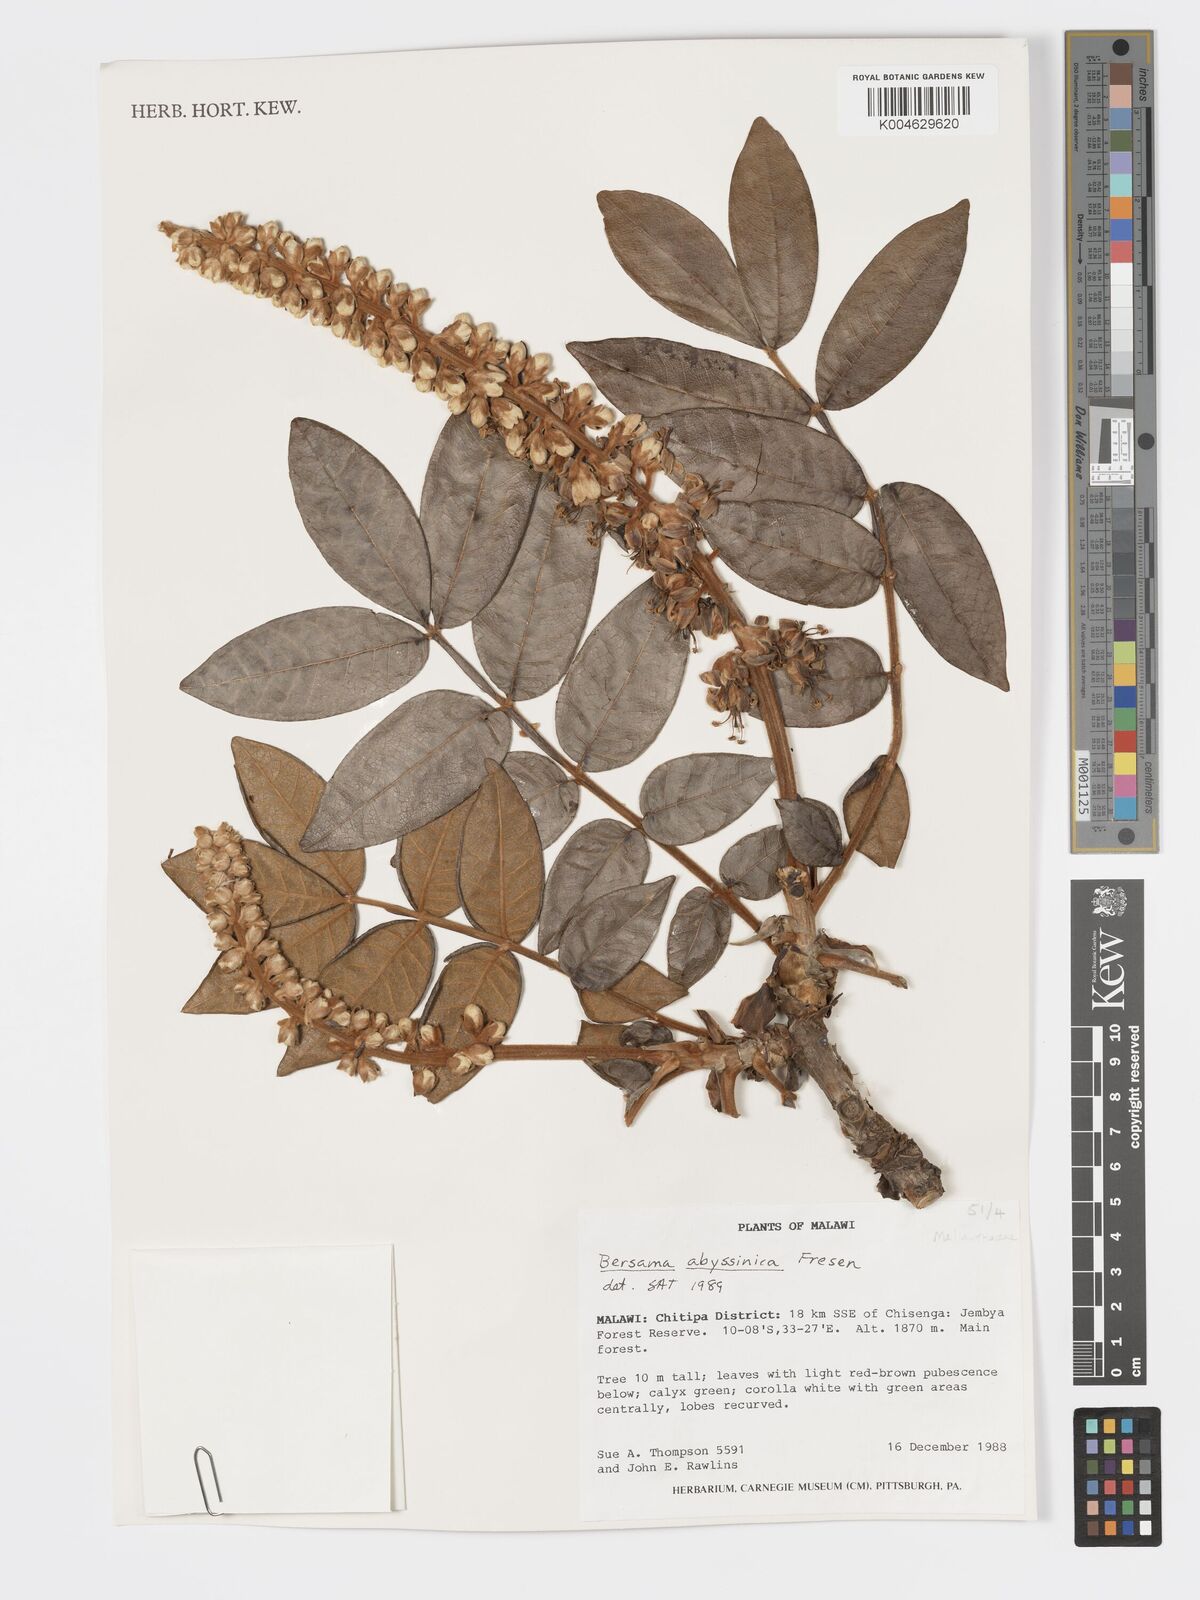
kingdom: Plantae
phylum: Tracheophyta
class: Magnoliopsida
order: Geraniales
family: Melianthaceae
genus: Bersama
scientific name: Bersama abyssinica
